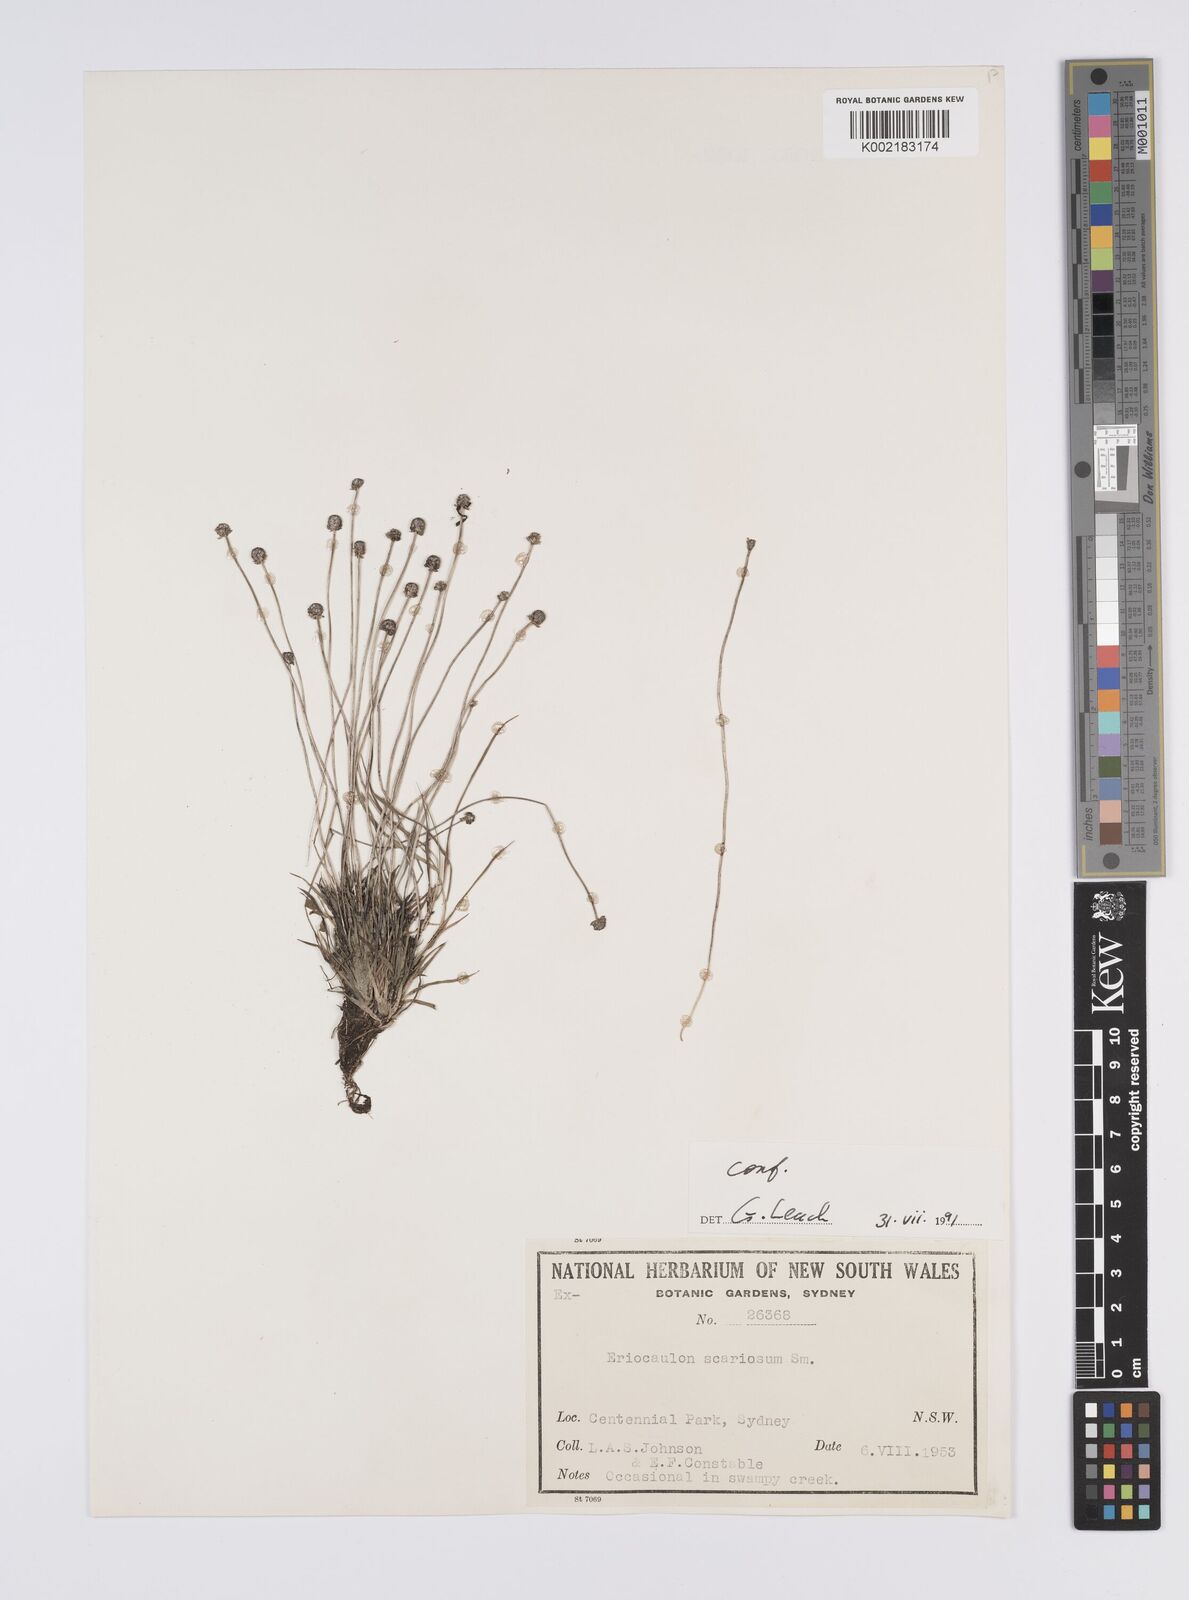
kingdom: Plantae
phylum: Tracheophyta
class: Liliopsida
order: Poales
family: Eriocaulaceae
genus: Eriocaulon
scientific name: Eriocaulon scariosum
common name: Rough pipewort
